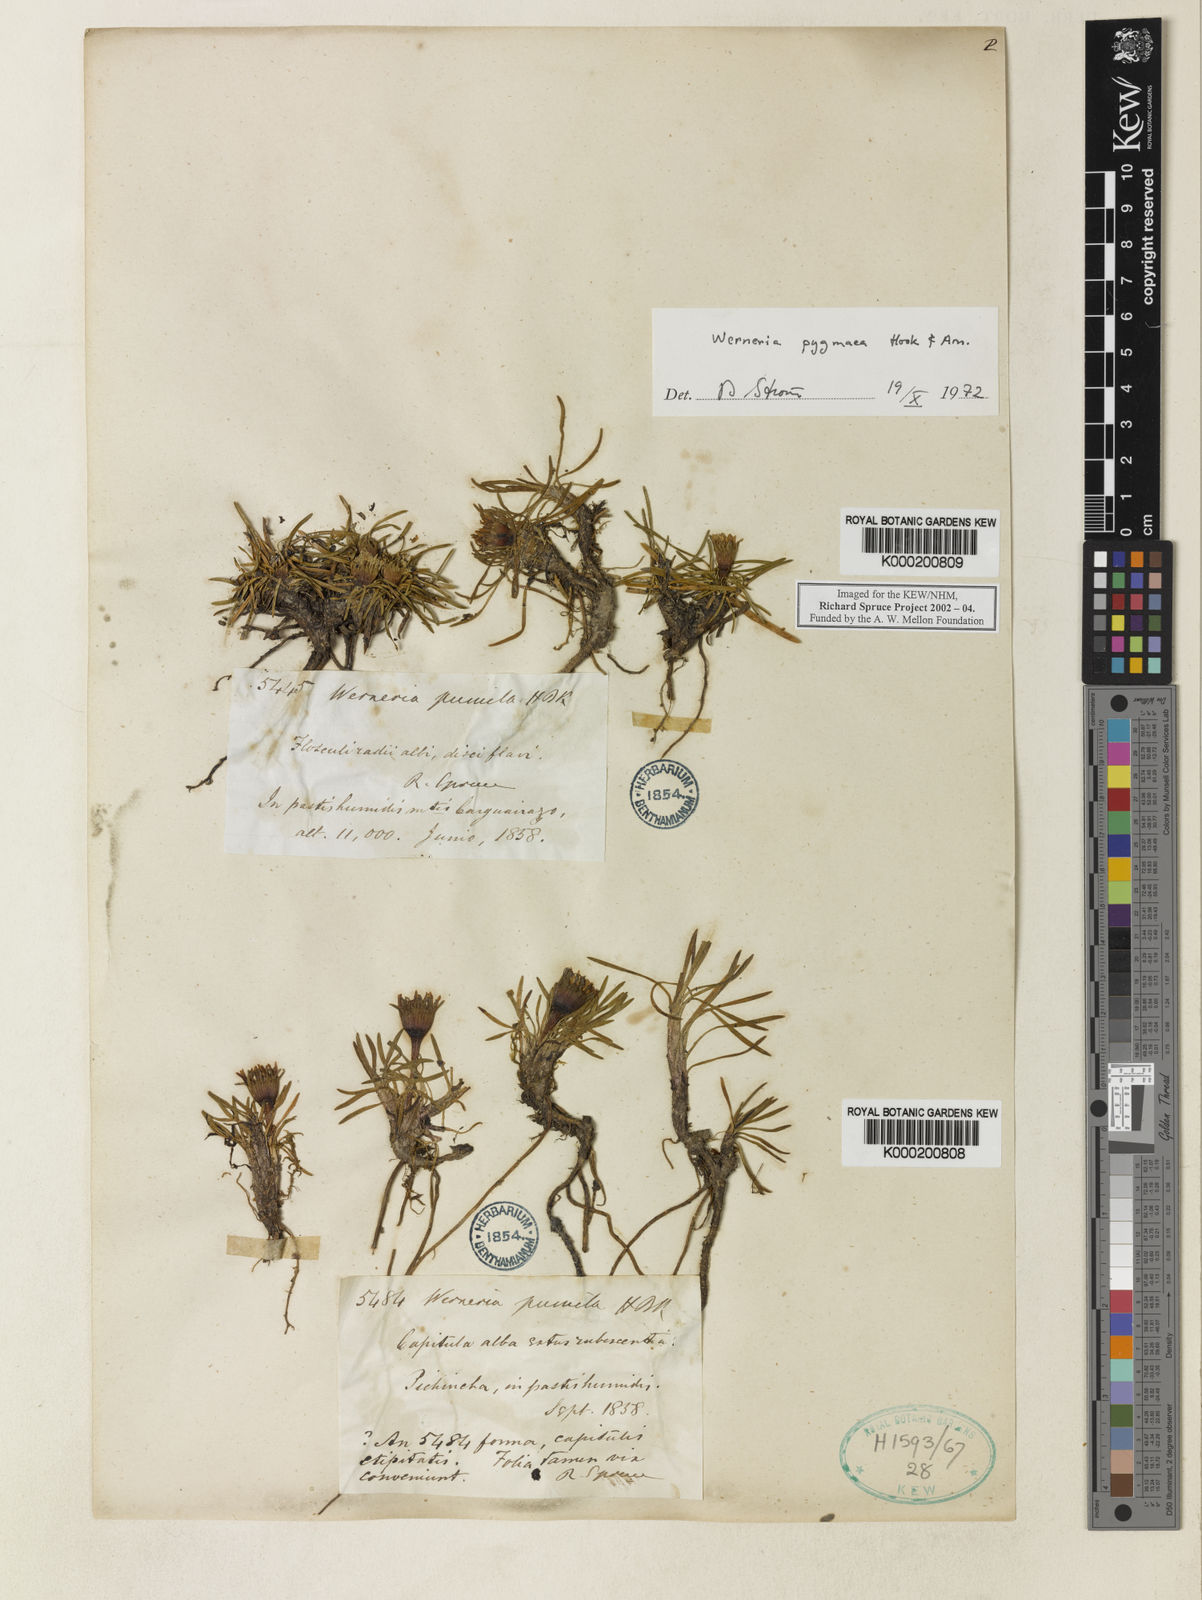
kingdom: Plantae
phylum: Tracheophyta
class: Magnoliopsida
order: Asterales
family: Asteraceae
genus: Rockhausenia
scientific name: Rockhausenia pygmaea
